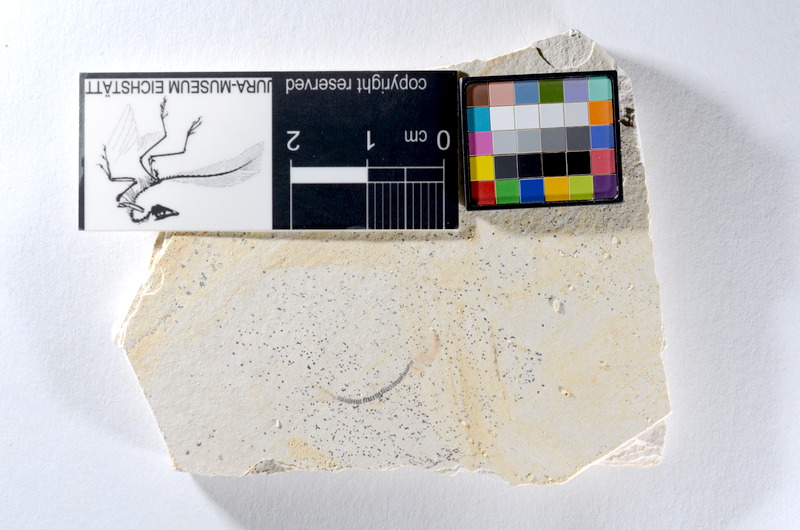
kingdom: Animalia
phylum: Chordata
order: Salmoniformes
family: Orthogonikleithridae
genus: Orthogonikleithrus
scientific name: Orthogonikleithrus hoelli
